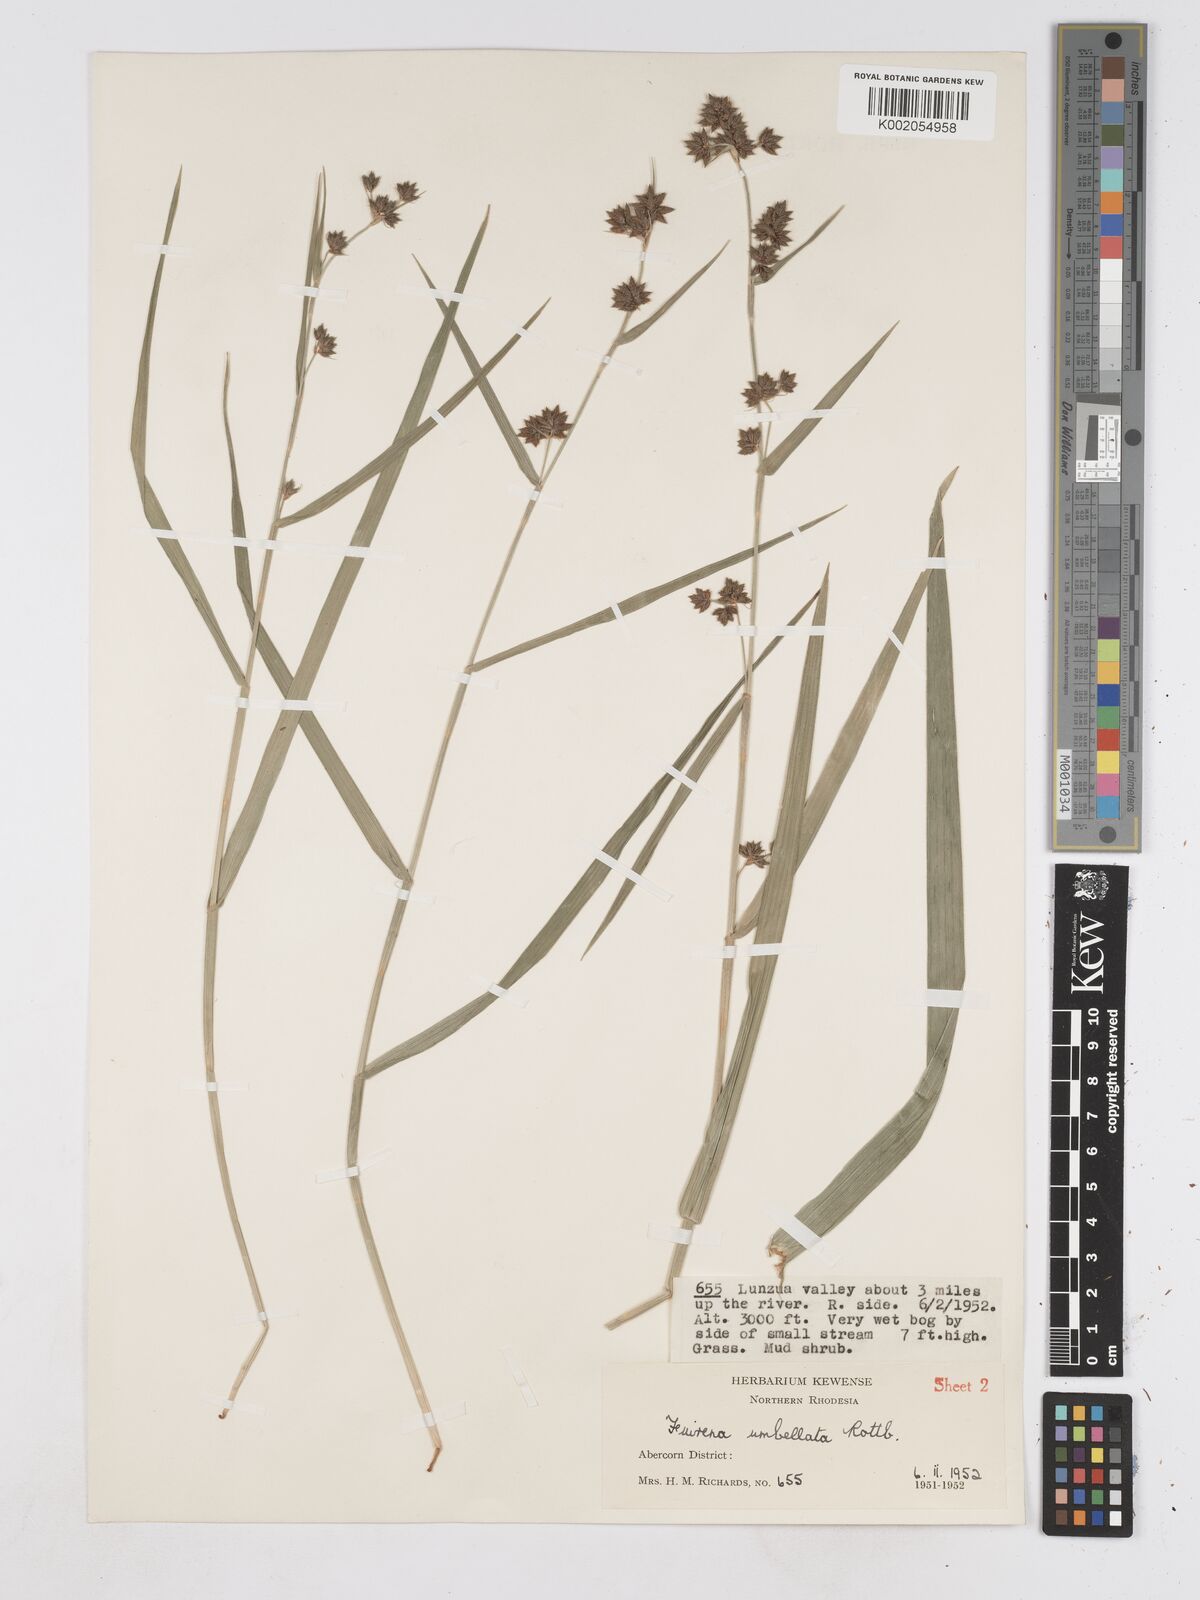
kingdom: Plantae
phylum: Tracheophyta
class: Liliopsida
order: Poales
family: Cyperaceae
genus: Fuirena
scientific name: Fuirena umbellata
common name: Yefen
